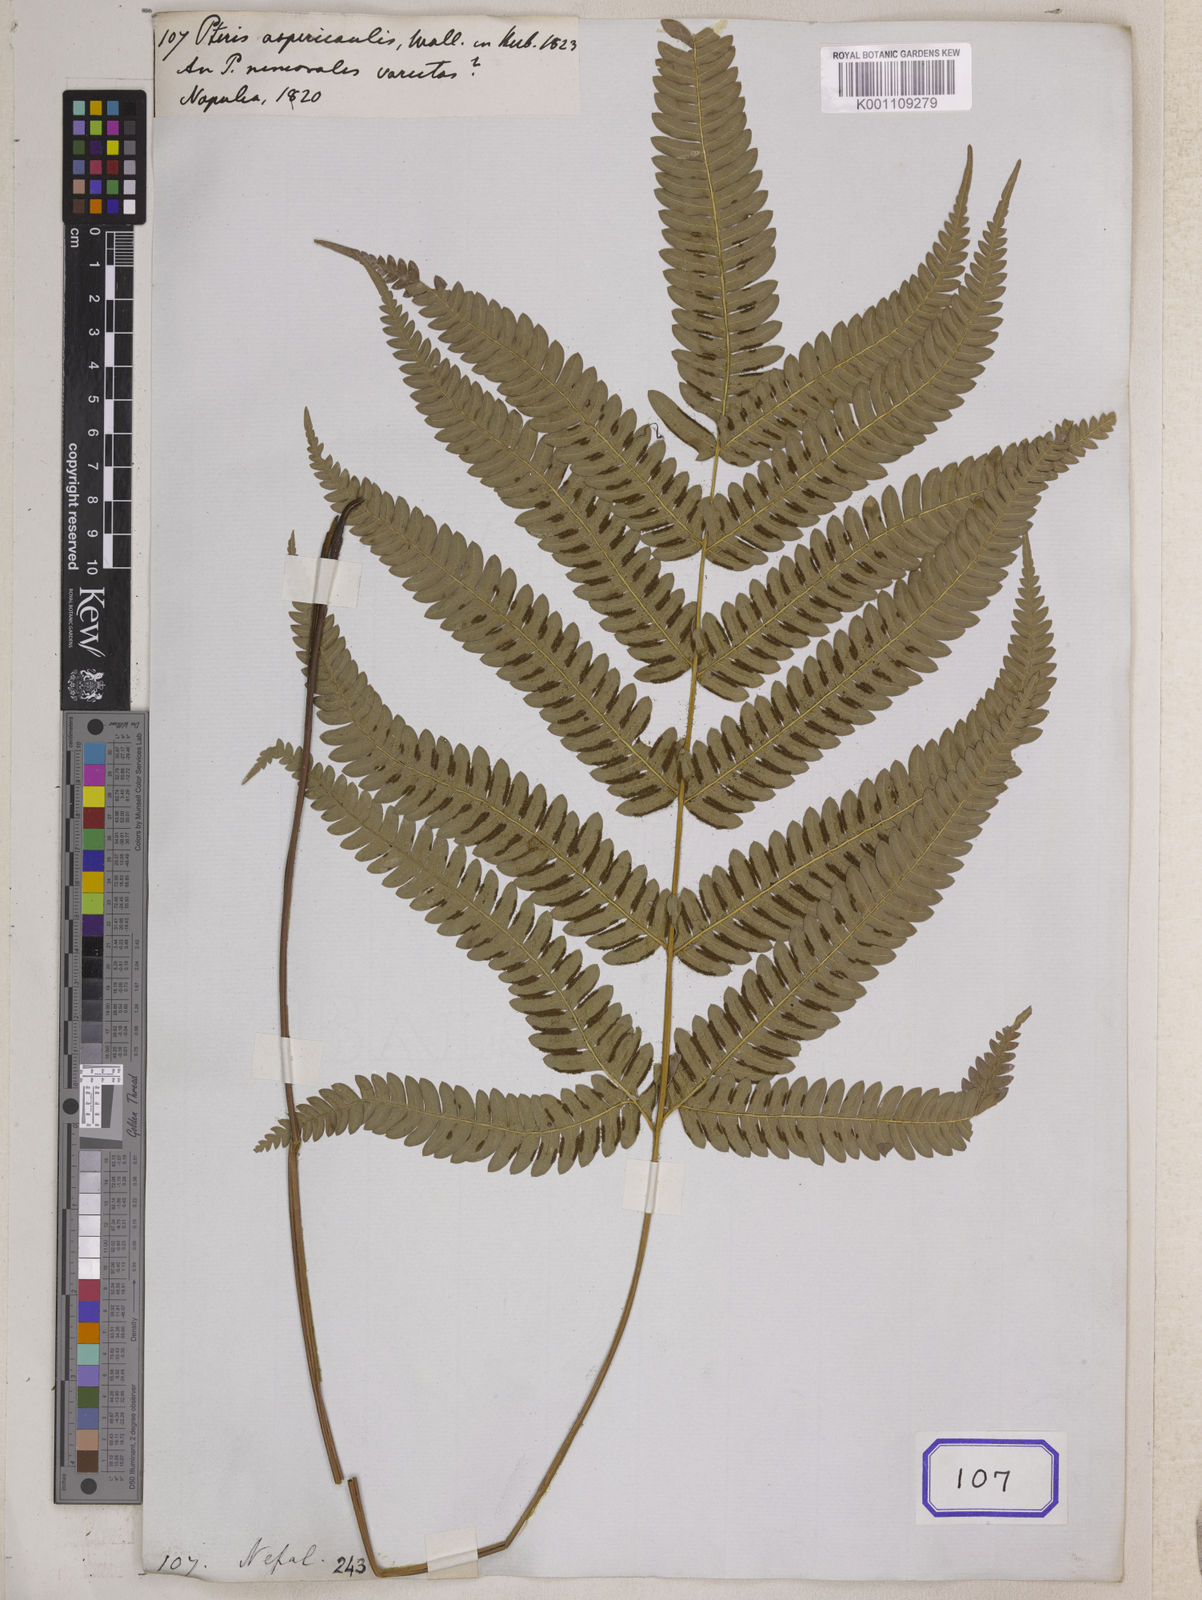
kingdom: Plantae
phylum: Tracheophyta
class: Polypodiopsida
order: Polypodiales
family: Pteridaceae
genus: Pteris
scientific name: Pteris aspericaulis
